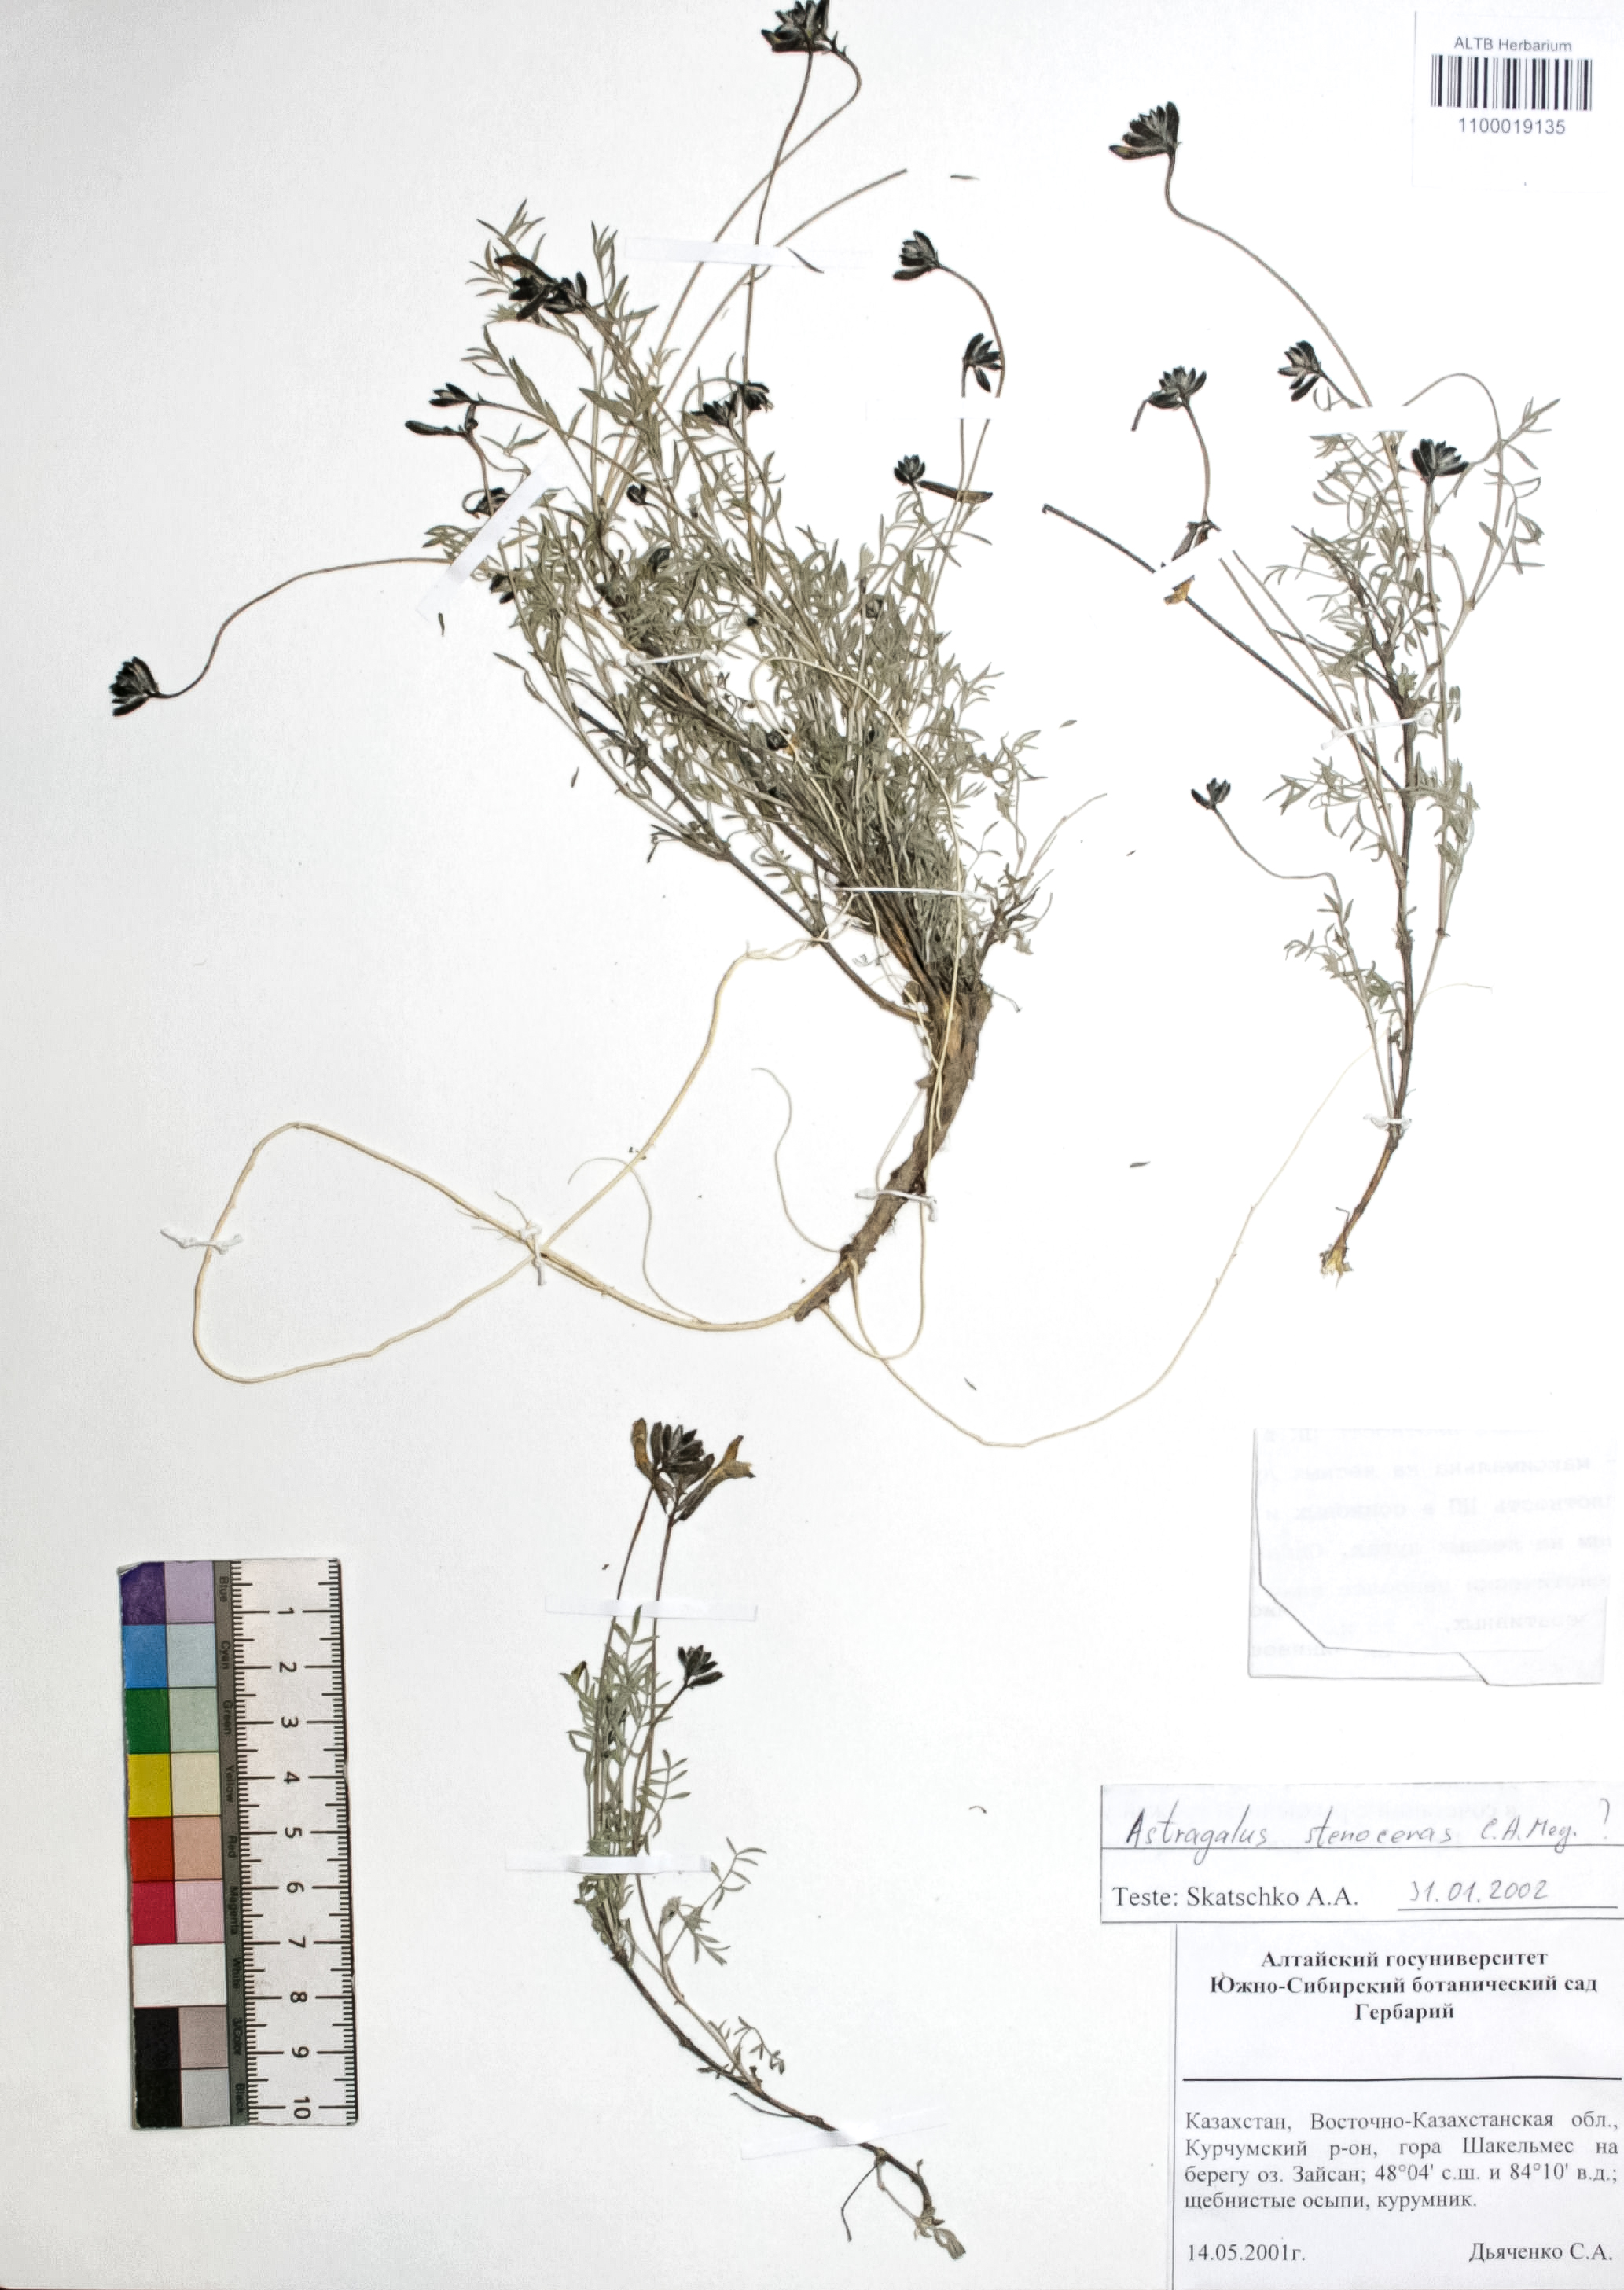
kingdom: Plantae
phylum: Tracheophyta
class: Magnoliopsida
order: Fabales
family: Fabaceae
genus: Astragalus
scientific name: Astragalus stenoceras
